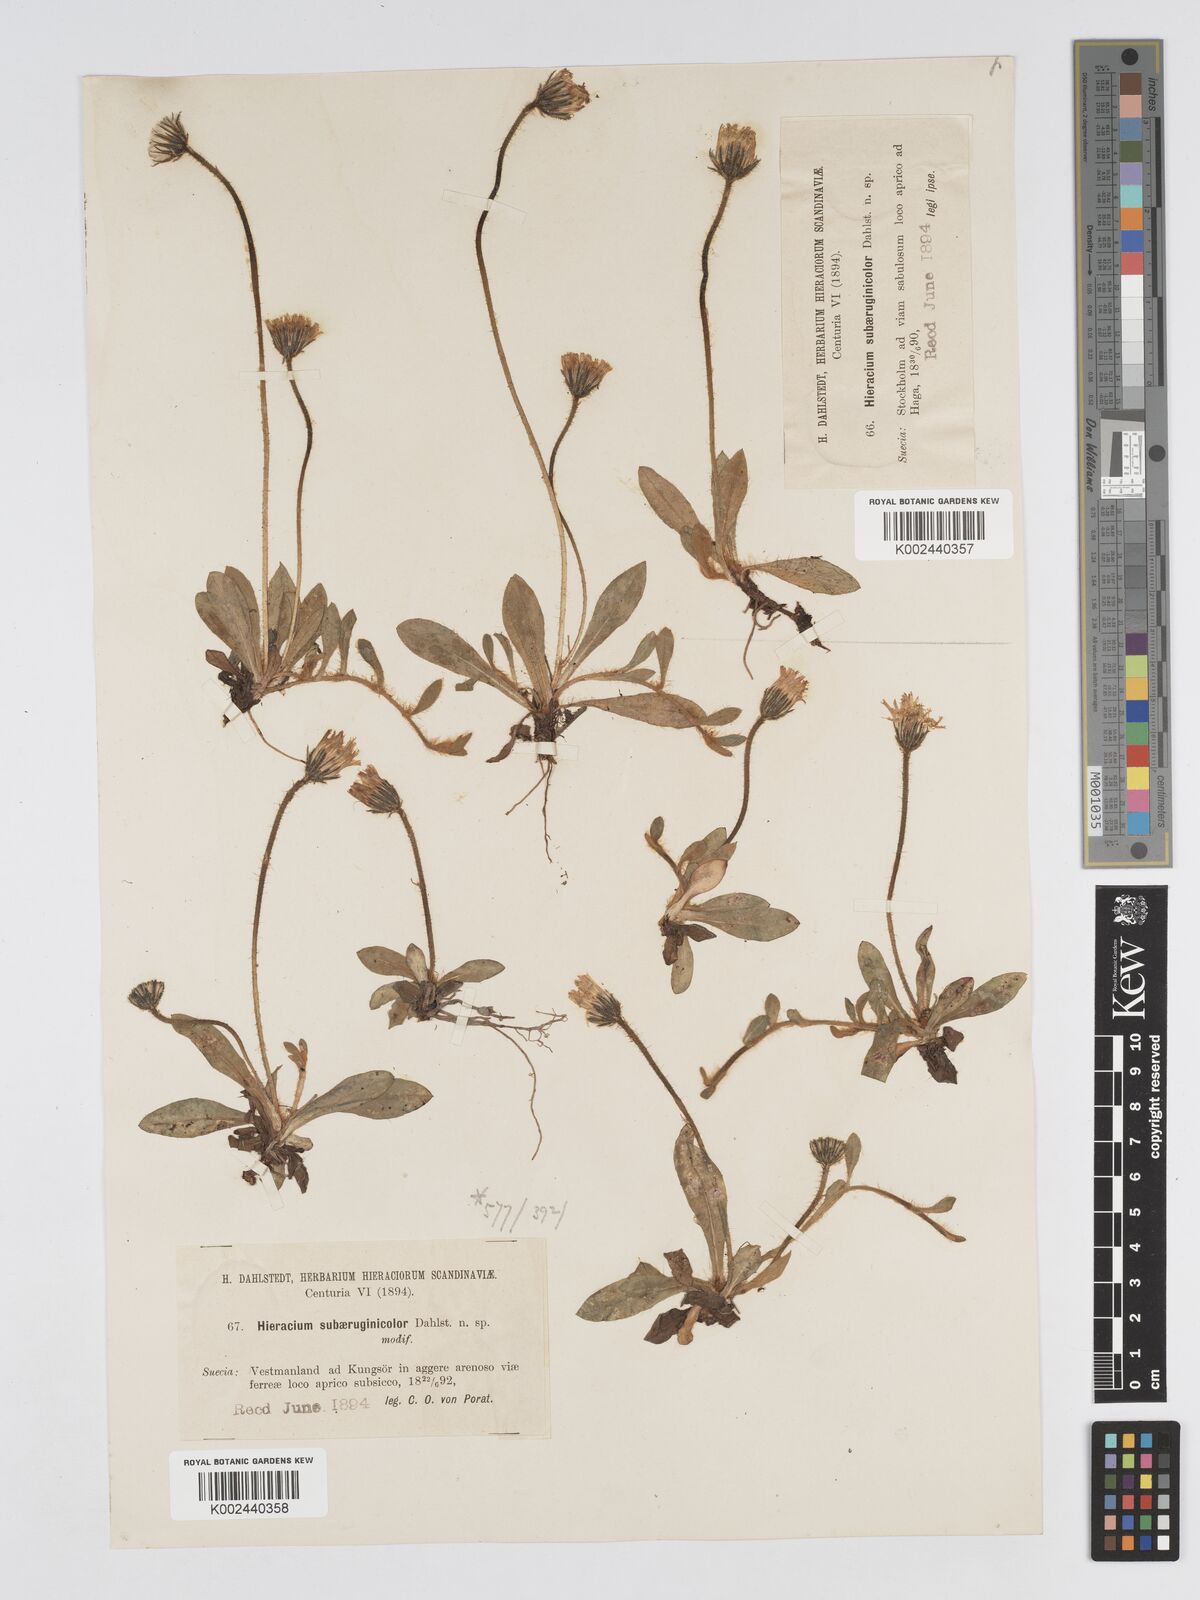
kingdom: Plantae
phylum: Tracheophyta
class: Magnoliopsida
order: Asterales
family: Asteraceae
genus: Pilosella
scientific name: Pilosella officinarum
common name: Mouse-ear hawkweed
